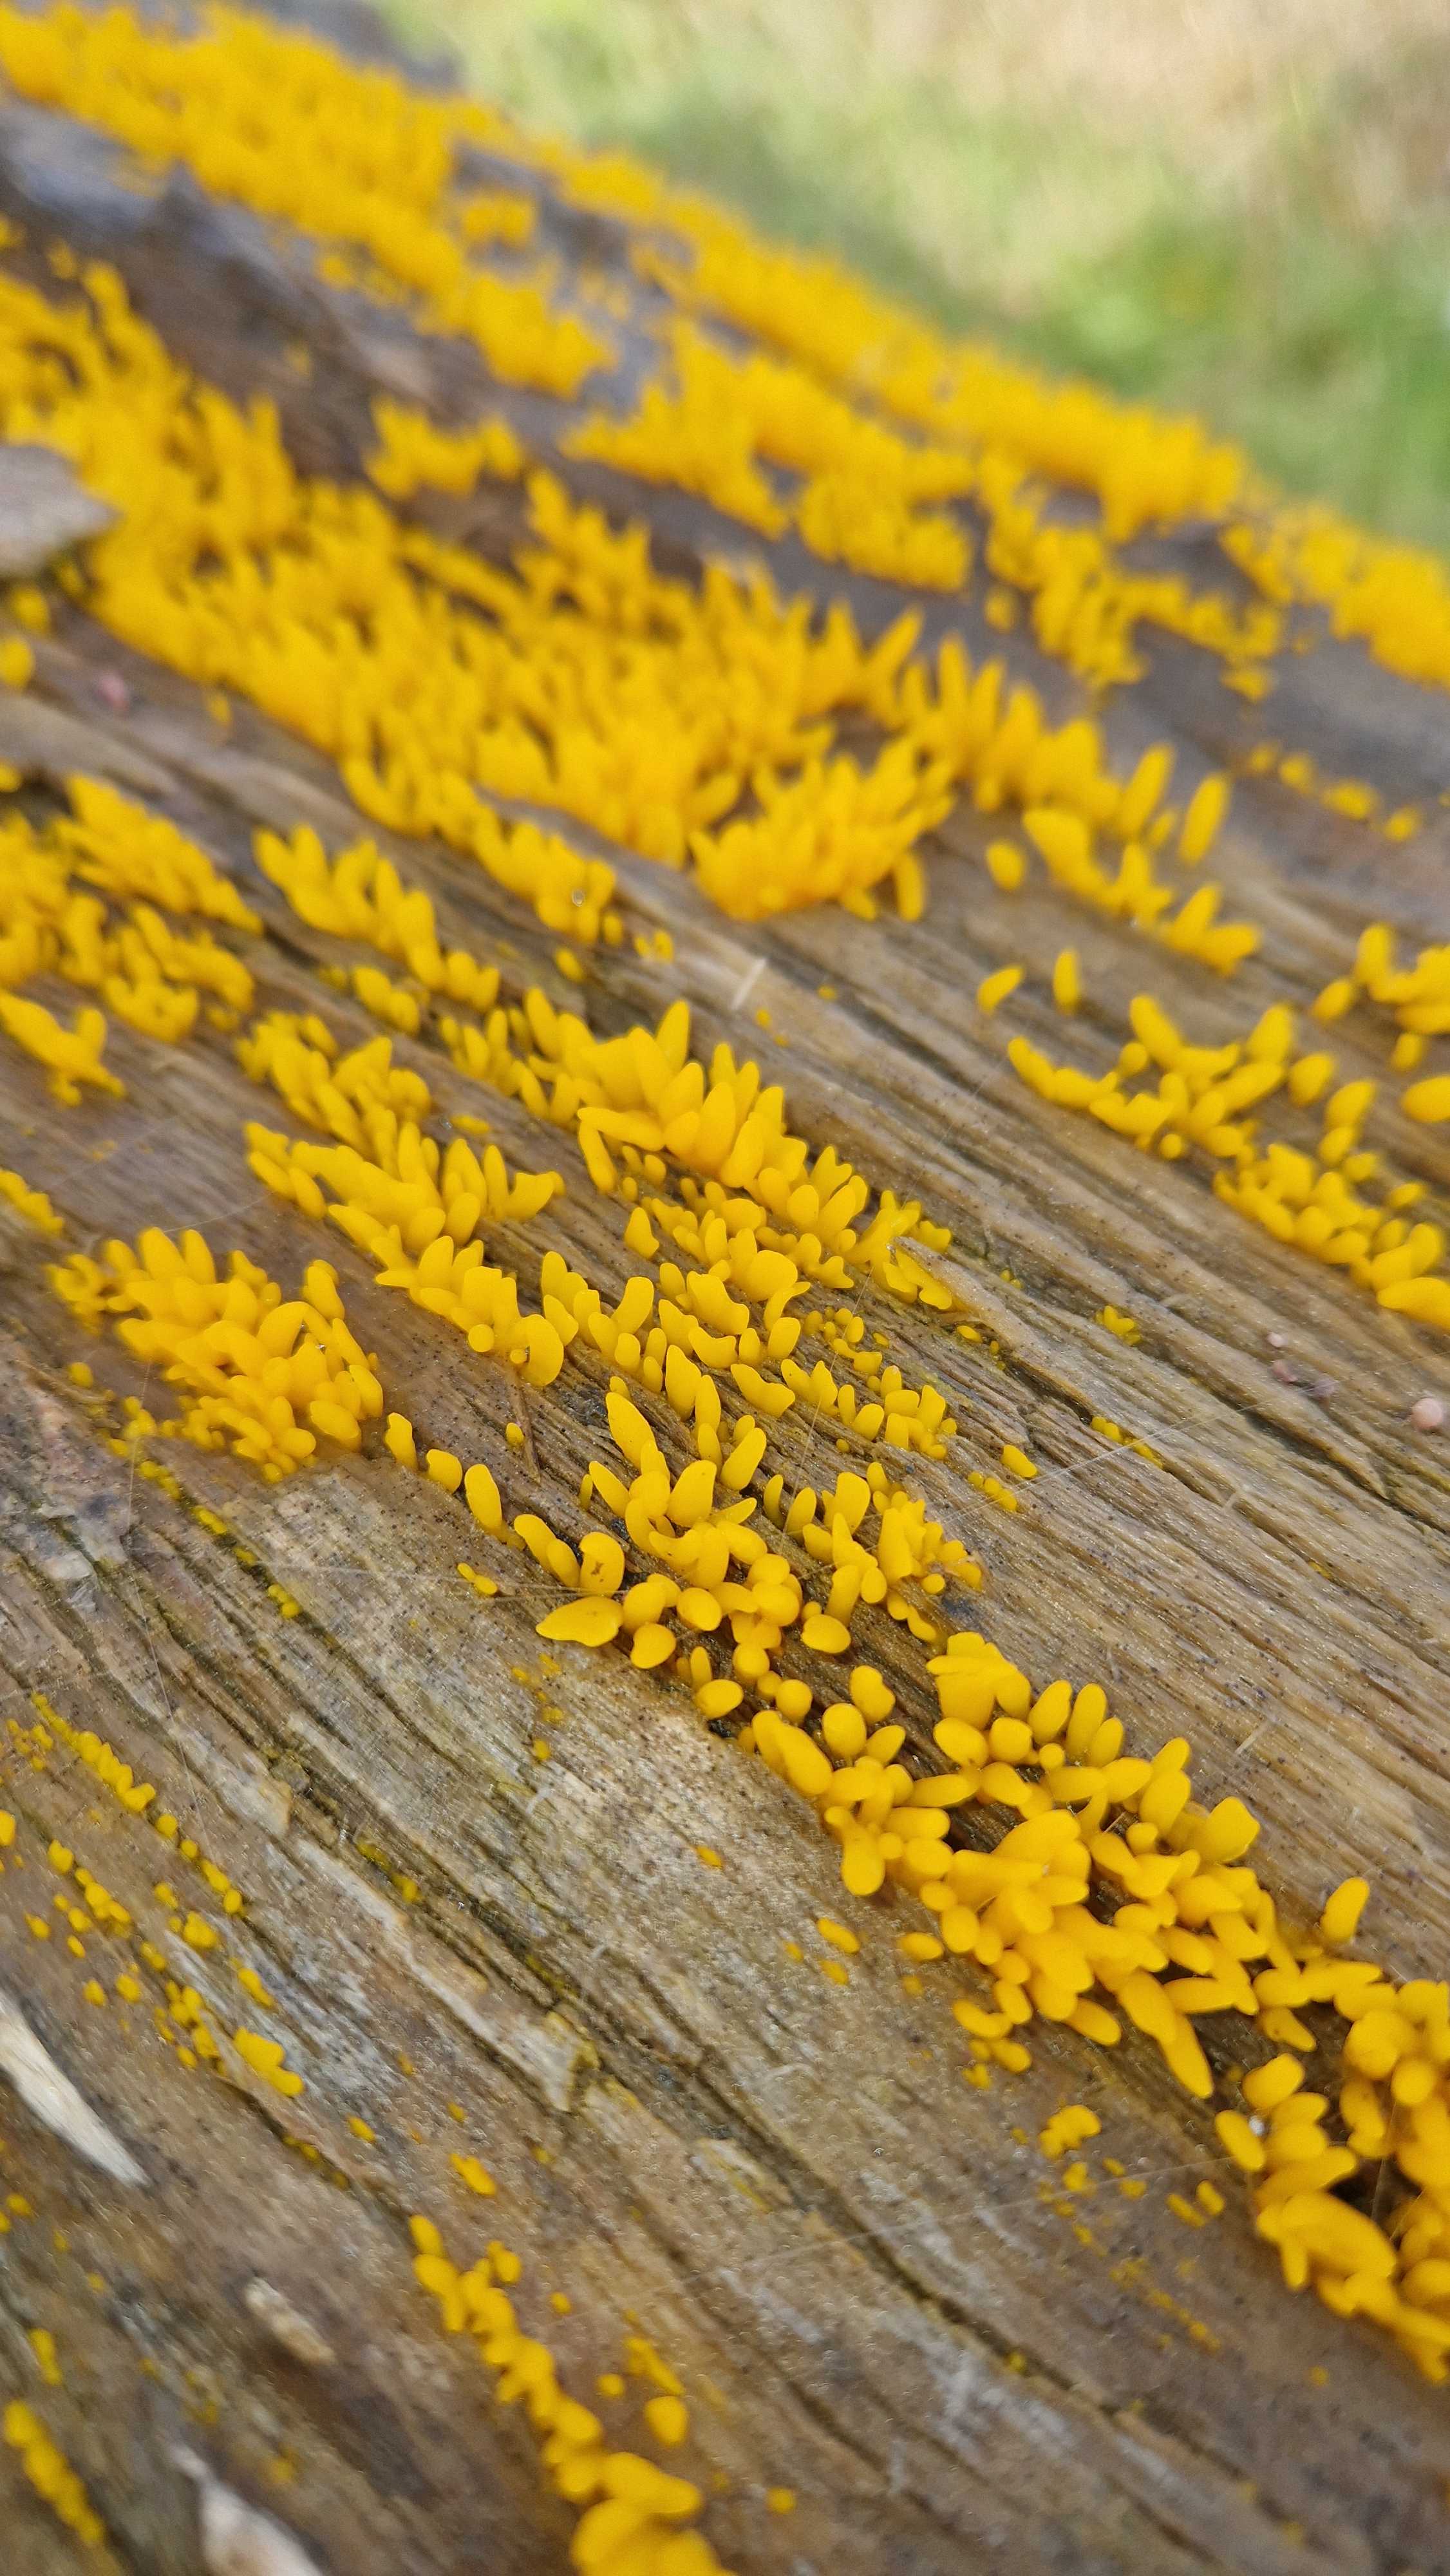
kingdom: Fungi
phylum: Basidiomycota
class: Dacrymycetes
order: Dacrymycetales
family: Dacrymycetaceae
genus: Calocera
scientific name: Calocera
